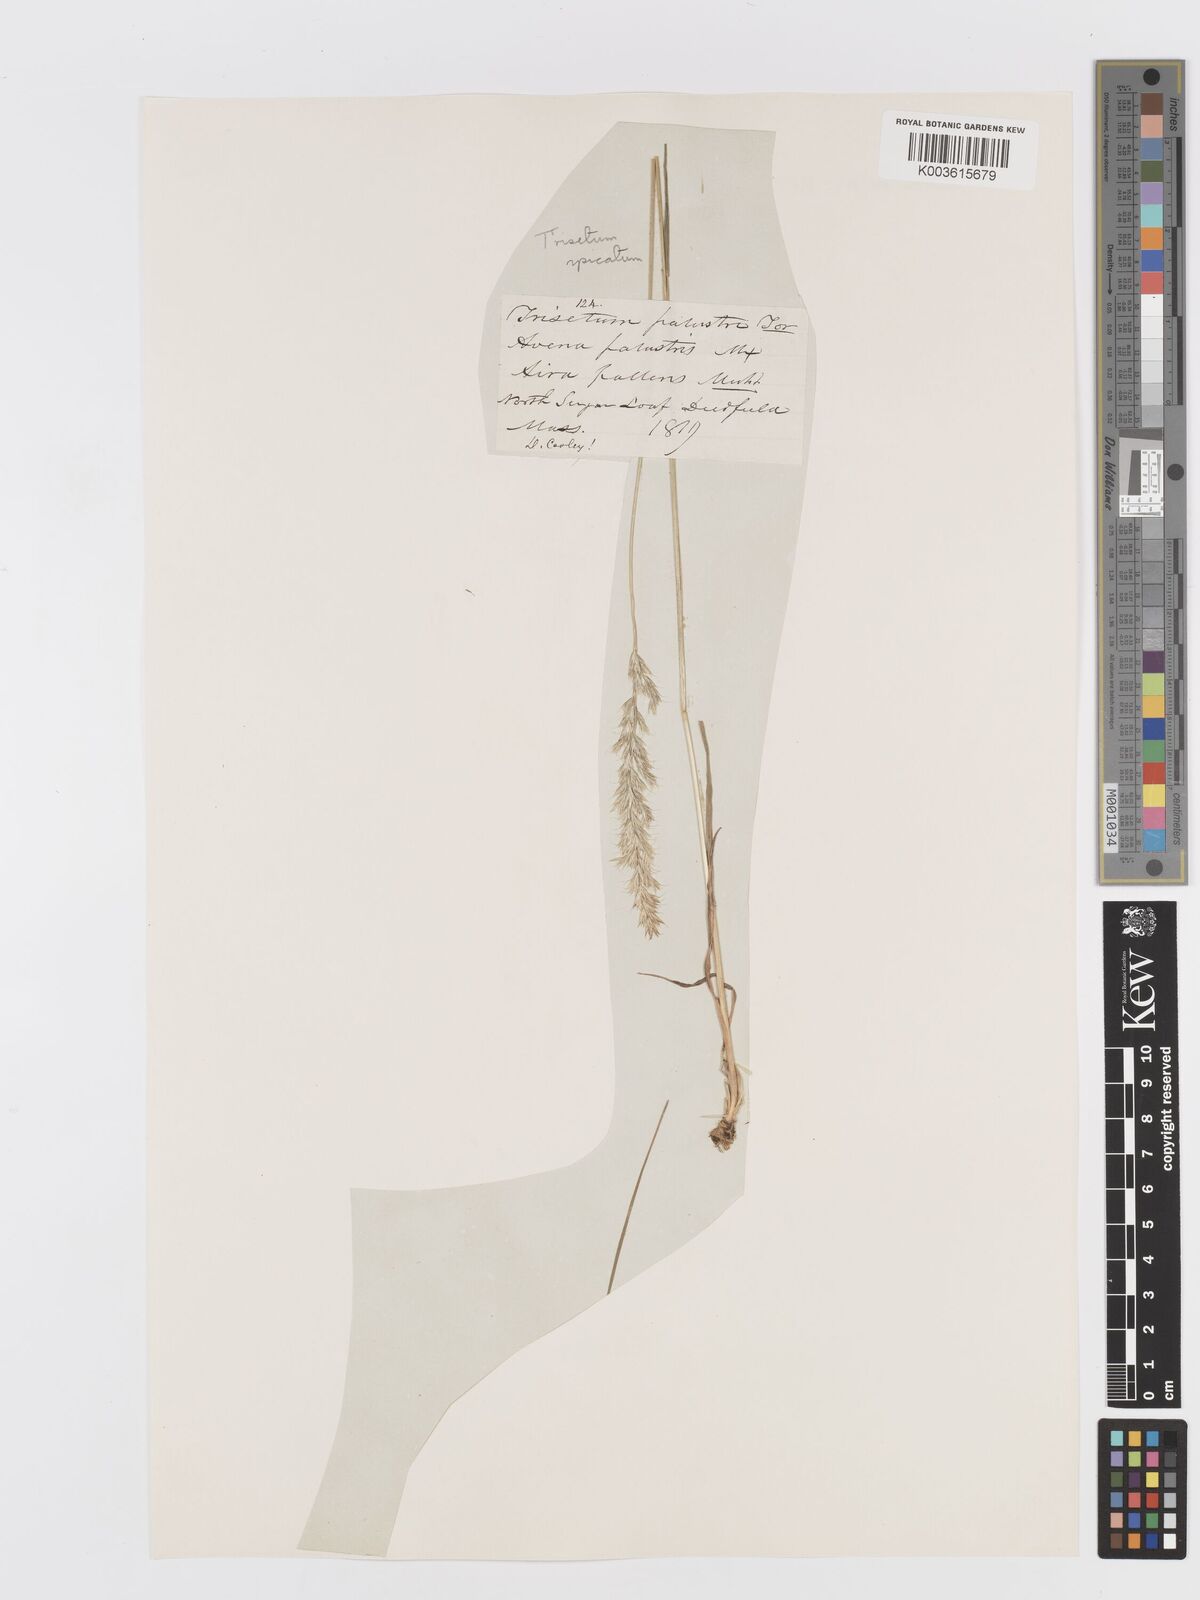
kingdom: Plantae
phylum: Tracheophyta
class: Liliopsida
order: Poales
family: Poaceae
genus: Koeleria
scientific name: Koeleria spicata
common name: Mountain trisetum
